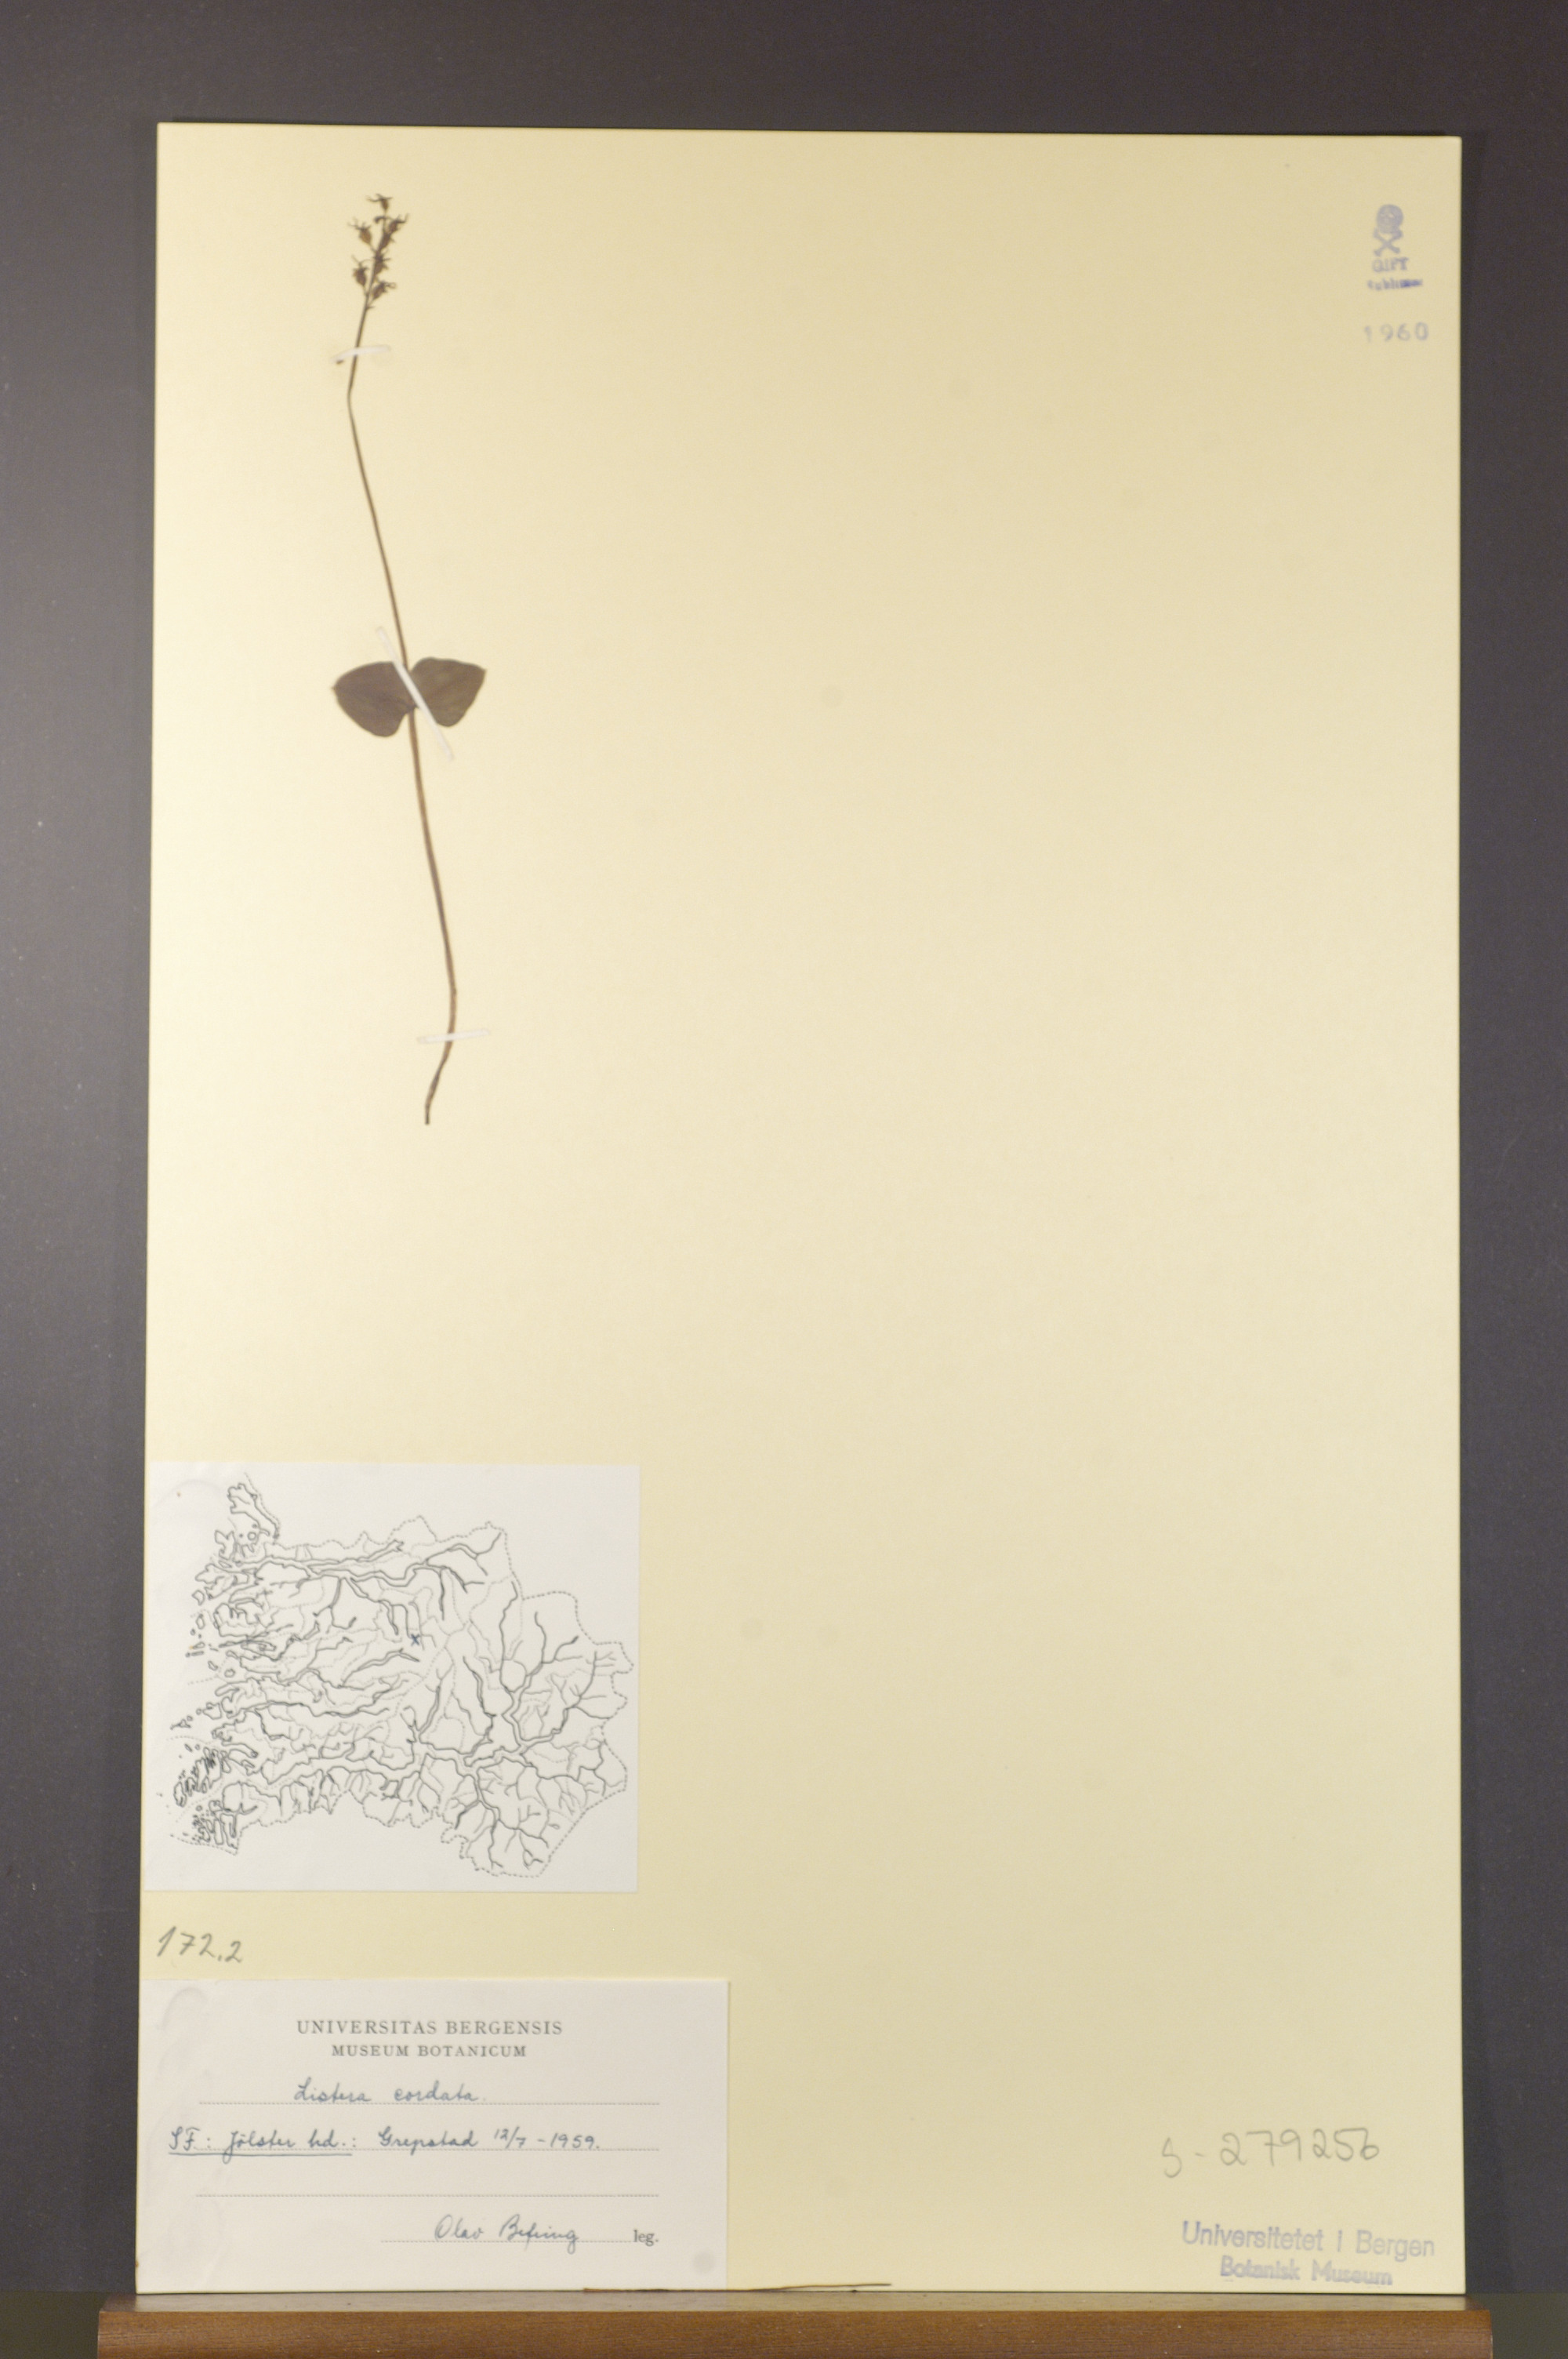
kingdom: Plantae
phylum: Tracheophyta
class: Liliopsida
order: Asparagales
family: Orchidaceae
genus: Neottia
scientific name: Neottia cordata
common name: Lesser twayblade
